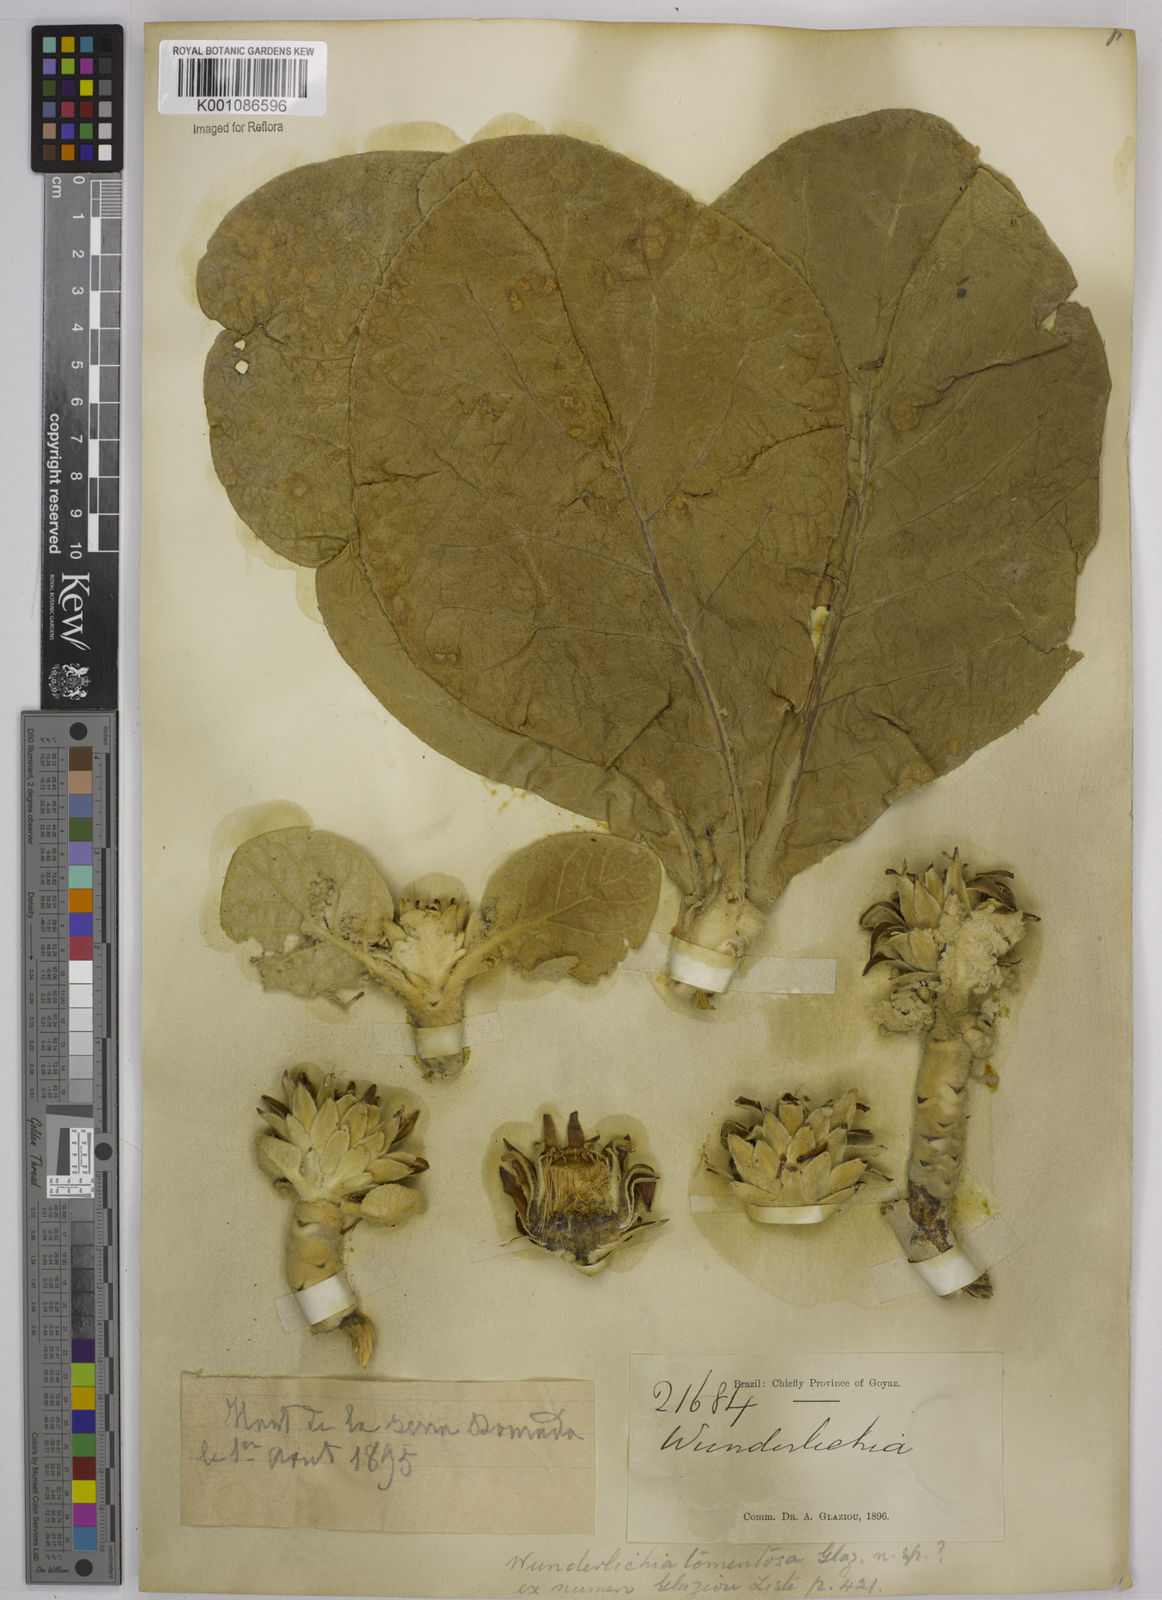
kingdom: Plantae
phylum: Tracheophyta
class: Magnoliopsida
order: Asterales
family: Asteraceae
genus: Wunderlichia
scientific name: Wunderlichia mirabilis
